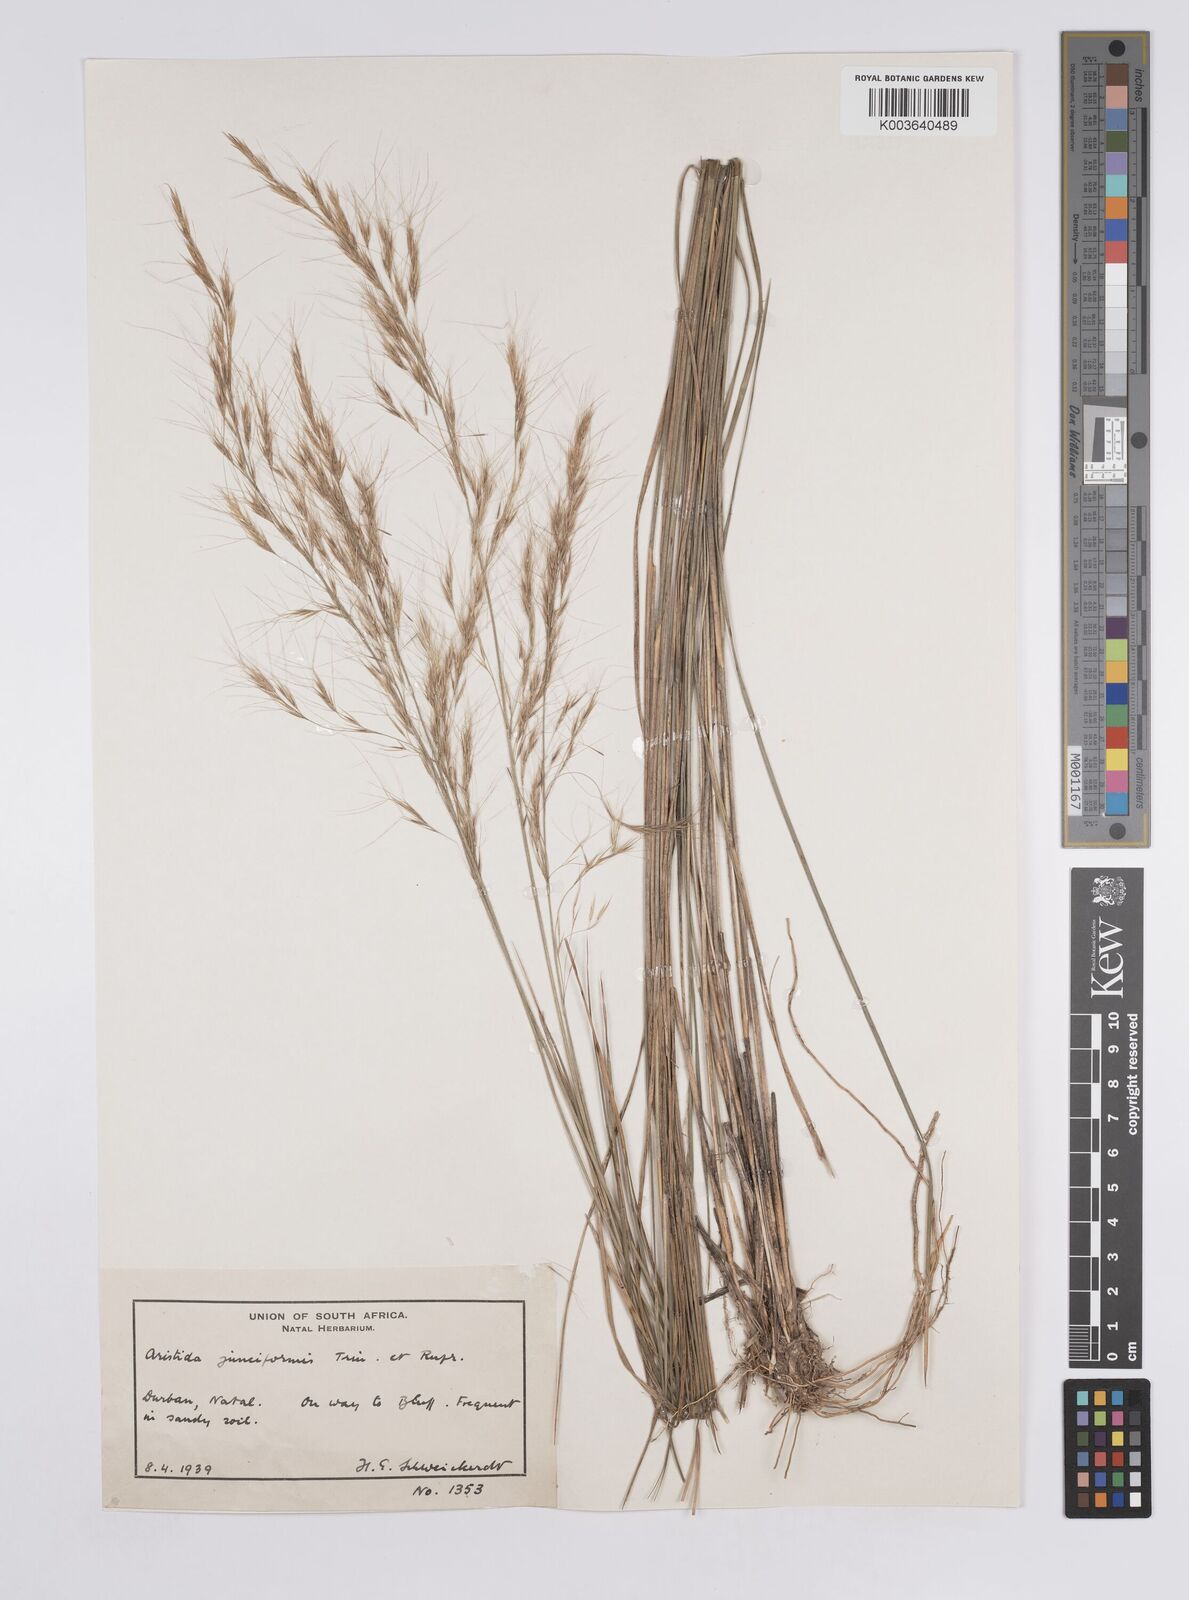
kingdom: Plantae
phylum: Tracheophyta
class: Liliopsida
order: Poales
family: Poaceae
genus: Aristida
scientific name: Aristida leucophaea
